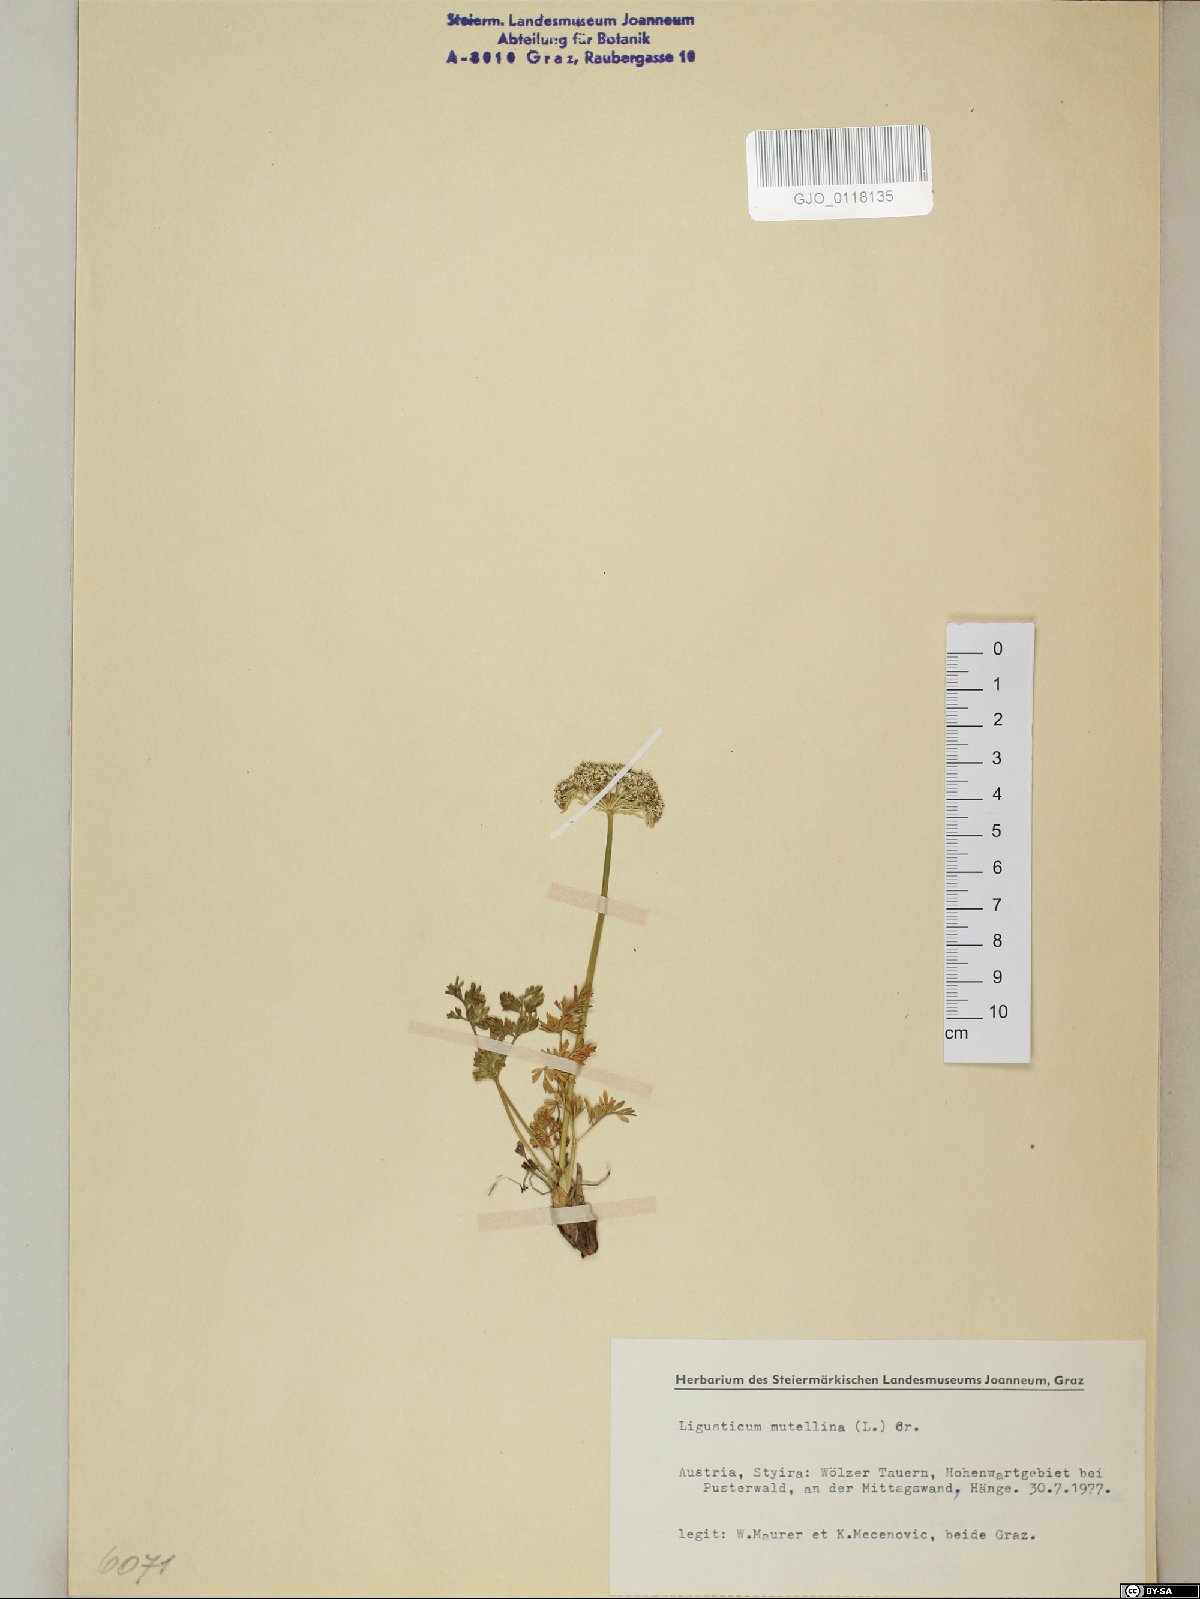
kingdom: Plantae
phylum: Tracheophyta
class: Magnoliopsida
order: Apiales
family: Apiaceae
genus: Mutellina
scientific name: Mutellina adonidifolia
